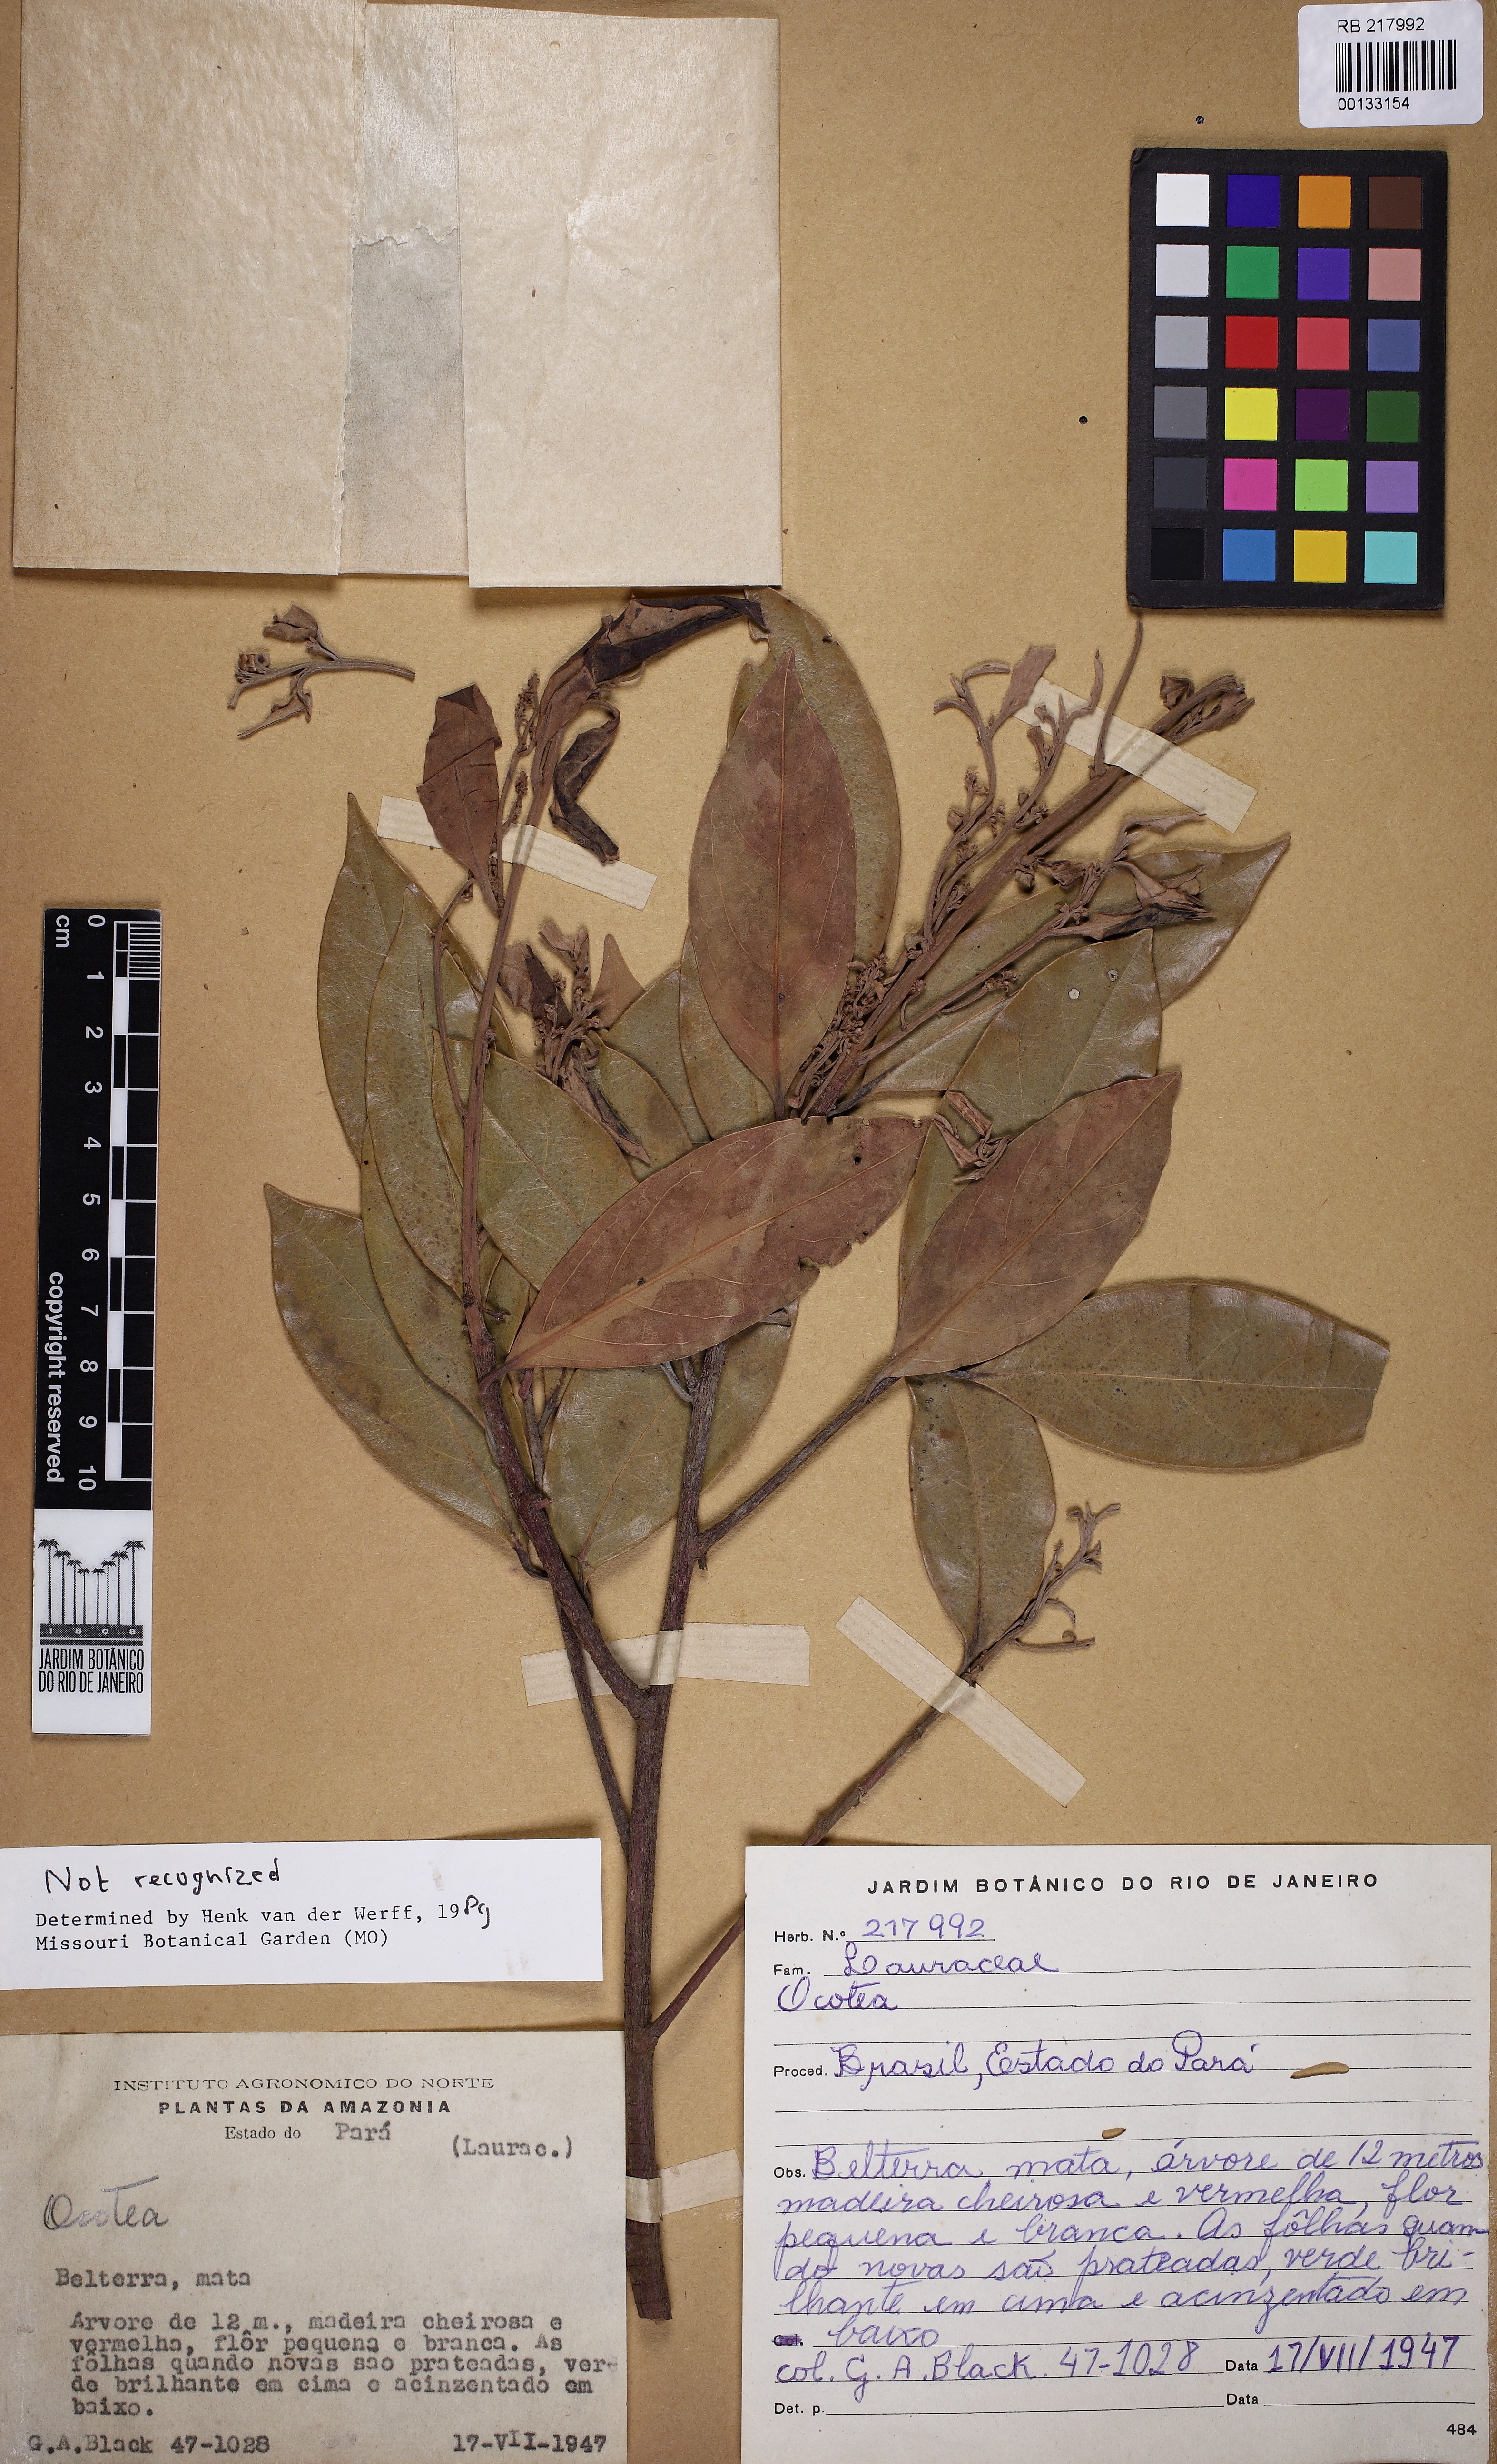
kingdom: Plantae
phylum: Tracheophyta
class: Magnoliopsida
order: Laurales
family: Lauraceae
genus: Ocotea
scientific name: Ocotea
